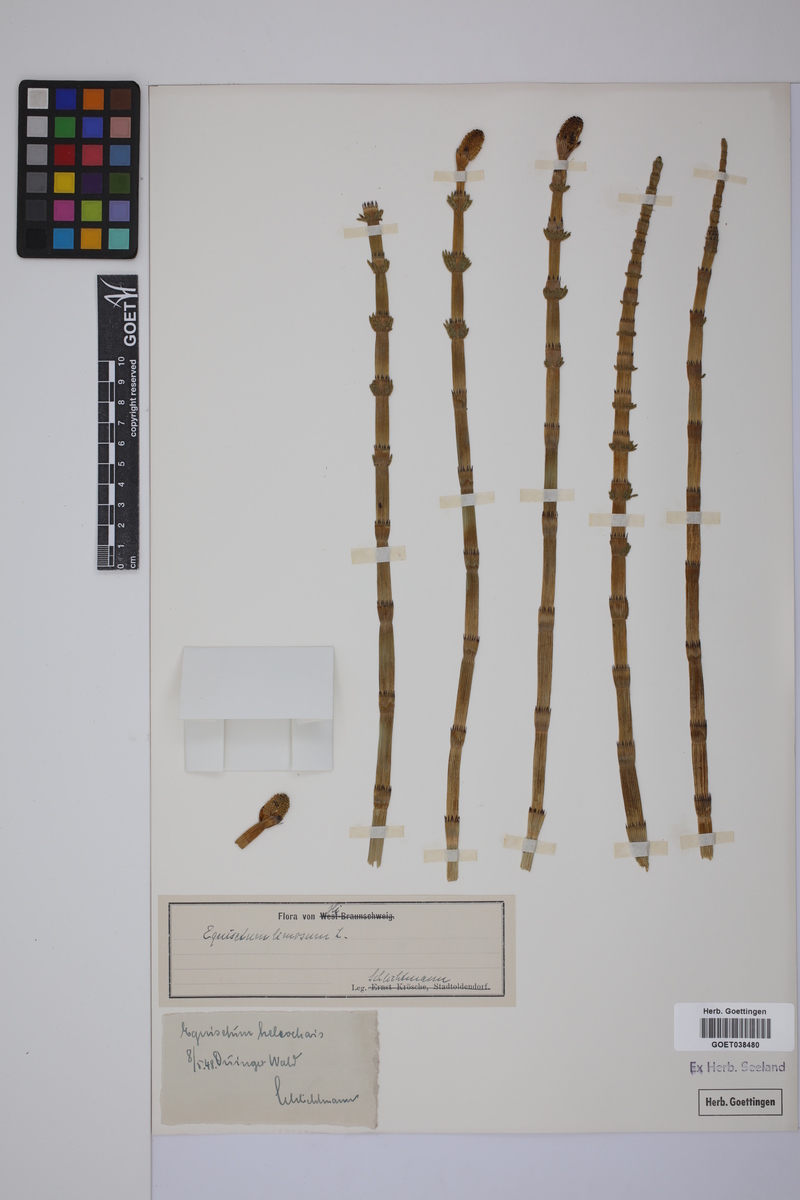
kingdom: Plantae
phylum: Tracheophyta
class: Polypodiopsida
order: Equisetales
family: Equisetaceae
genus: Equisetum
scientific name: Equisetum fluviatile
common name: Water horsetail
